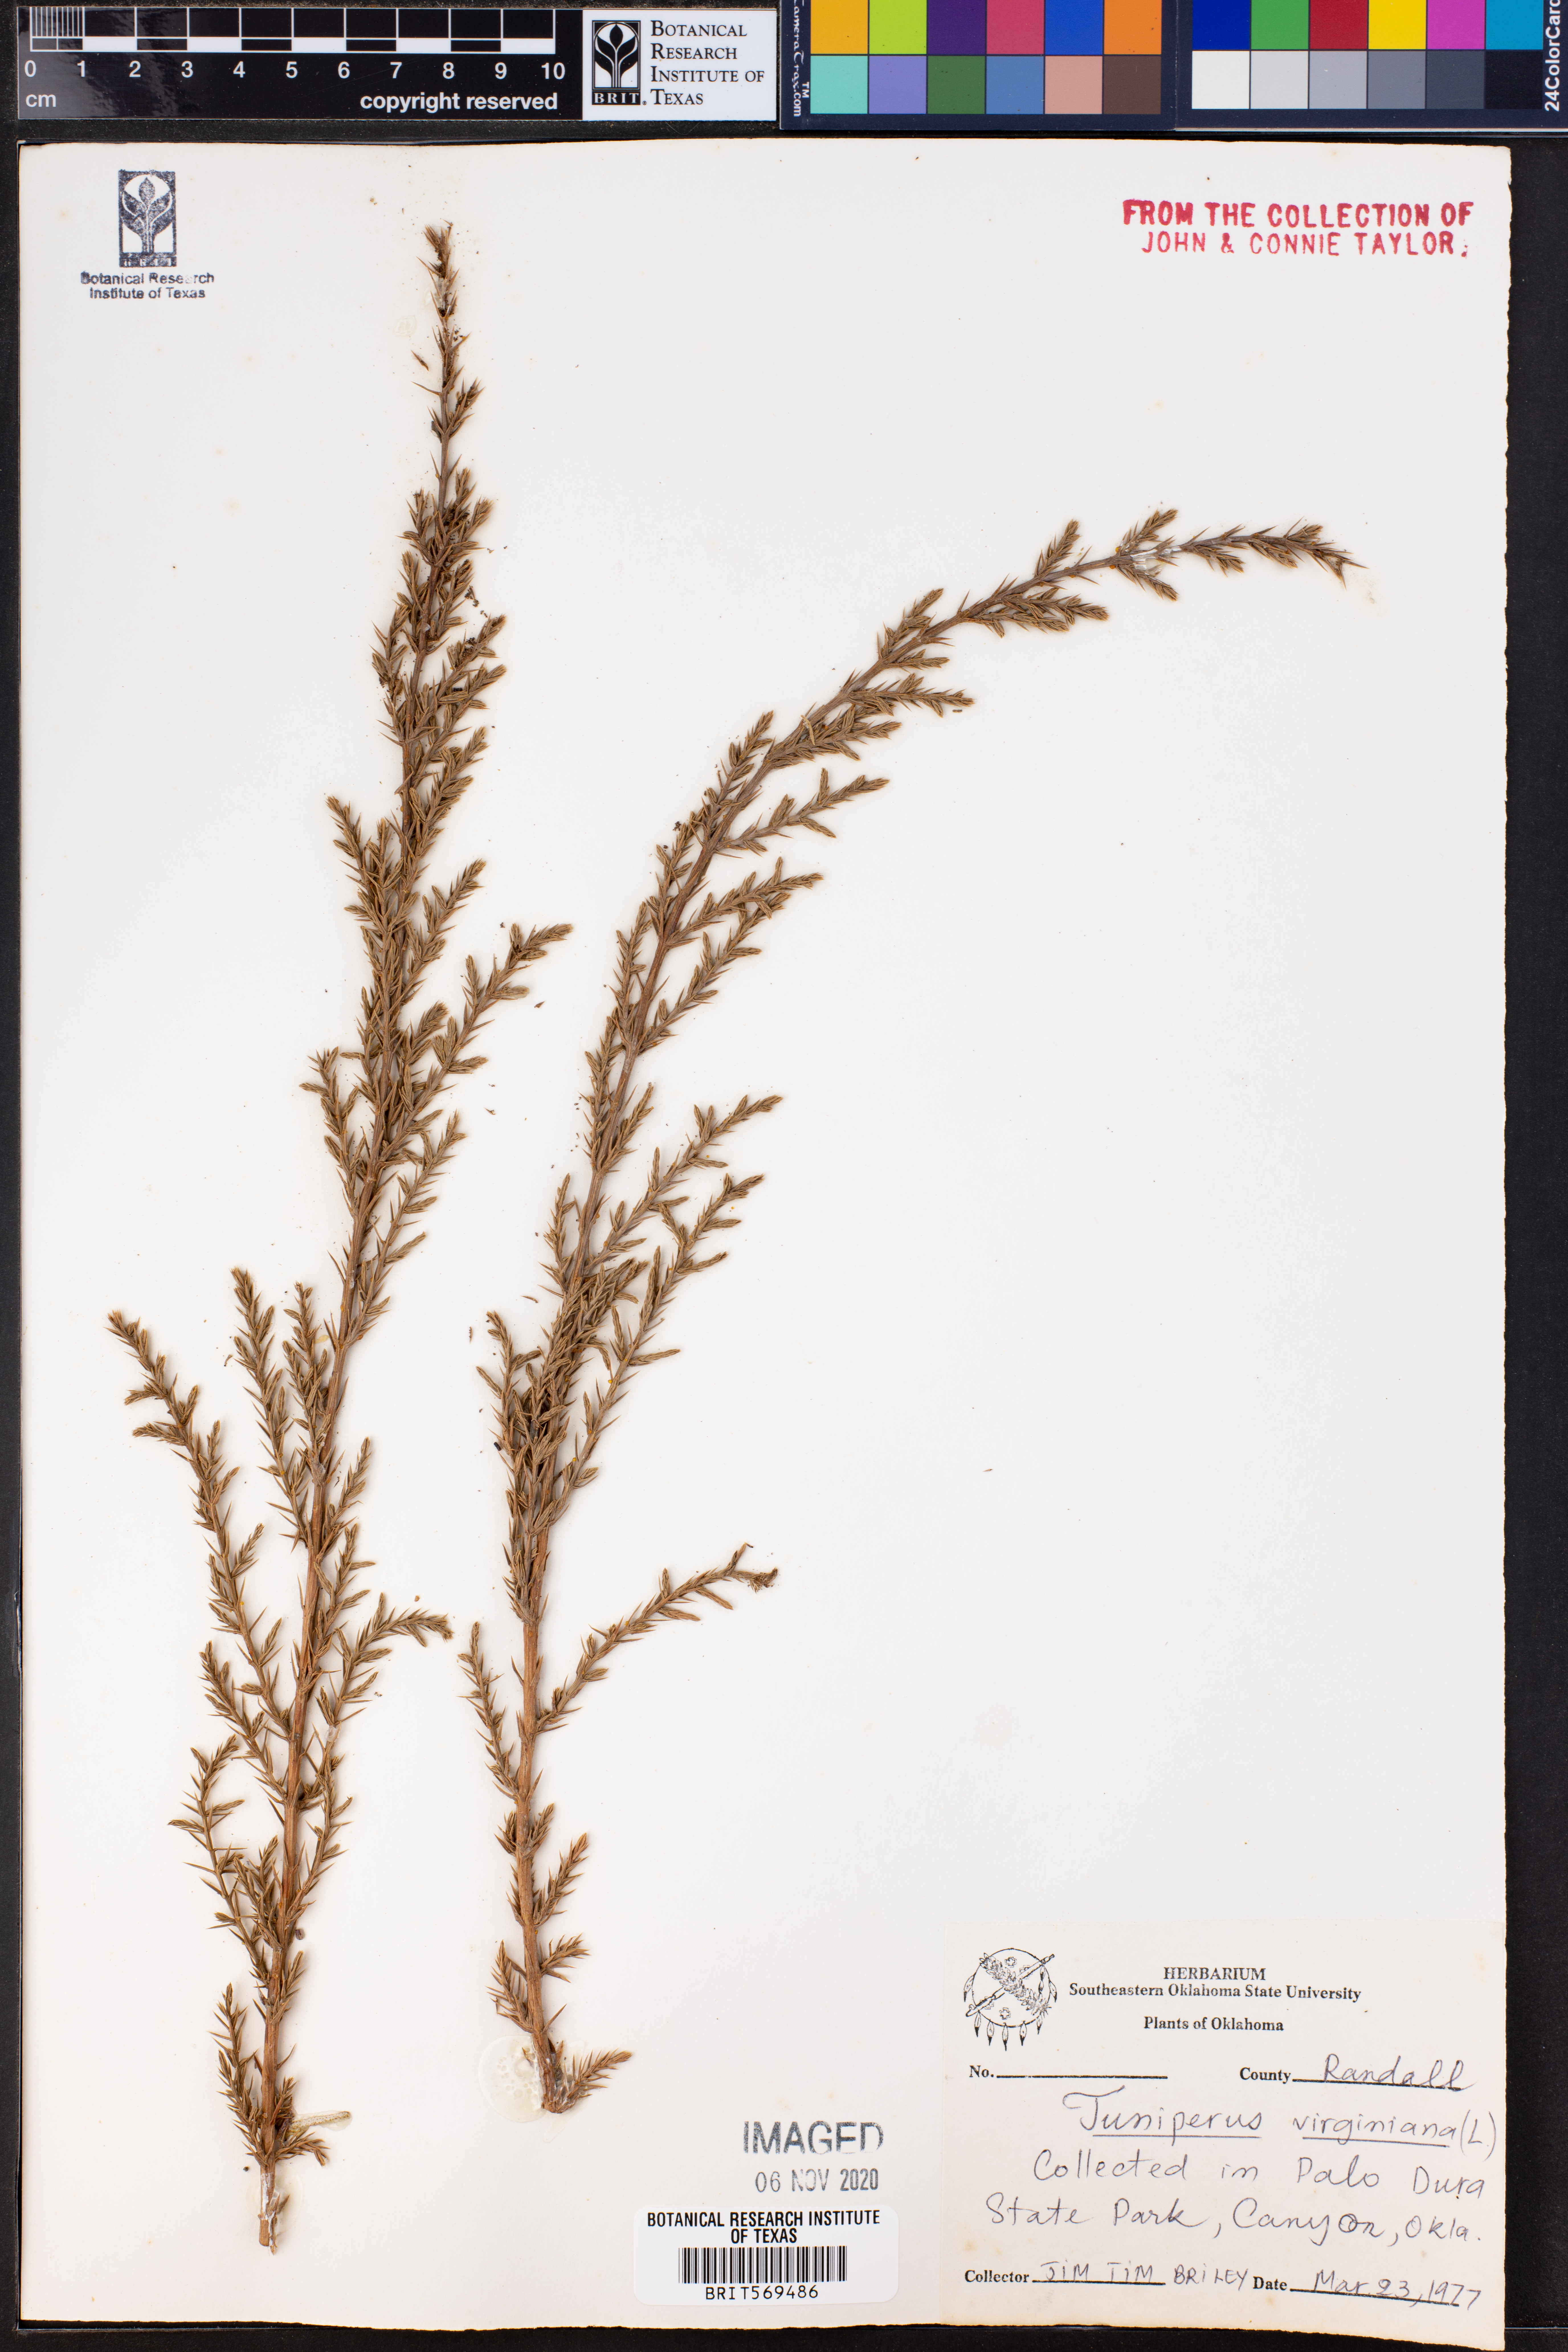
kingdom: Plantae
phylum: Tracheophyta
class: Pinopsida
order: Pinales
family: Cupressaceae
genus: Juniperus
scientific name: Juniperus virginiana
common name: Red juniper
